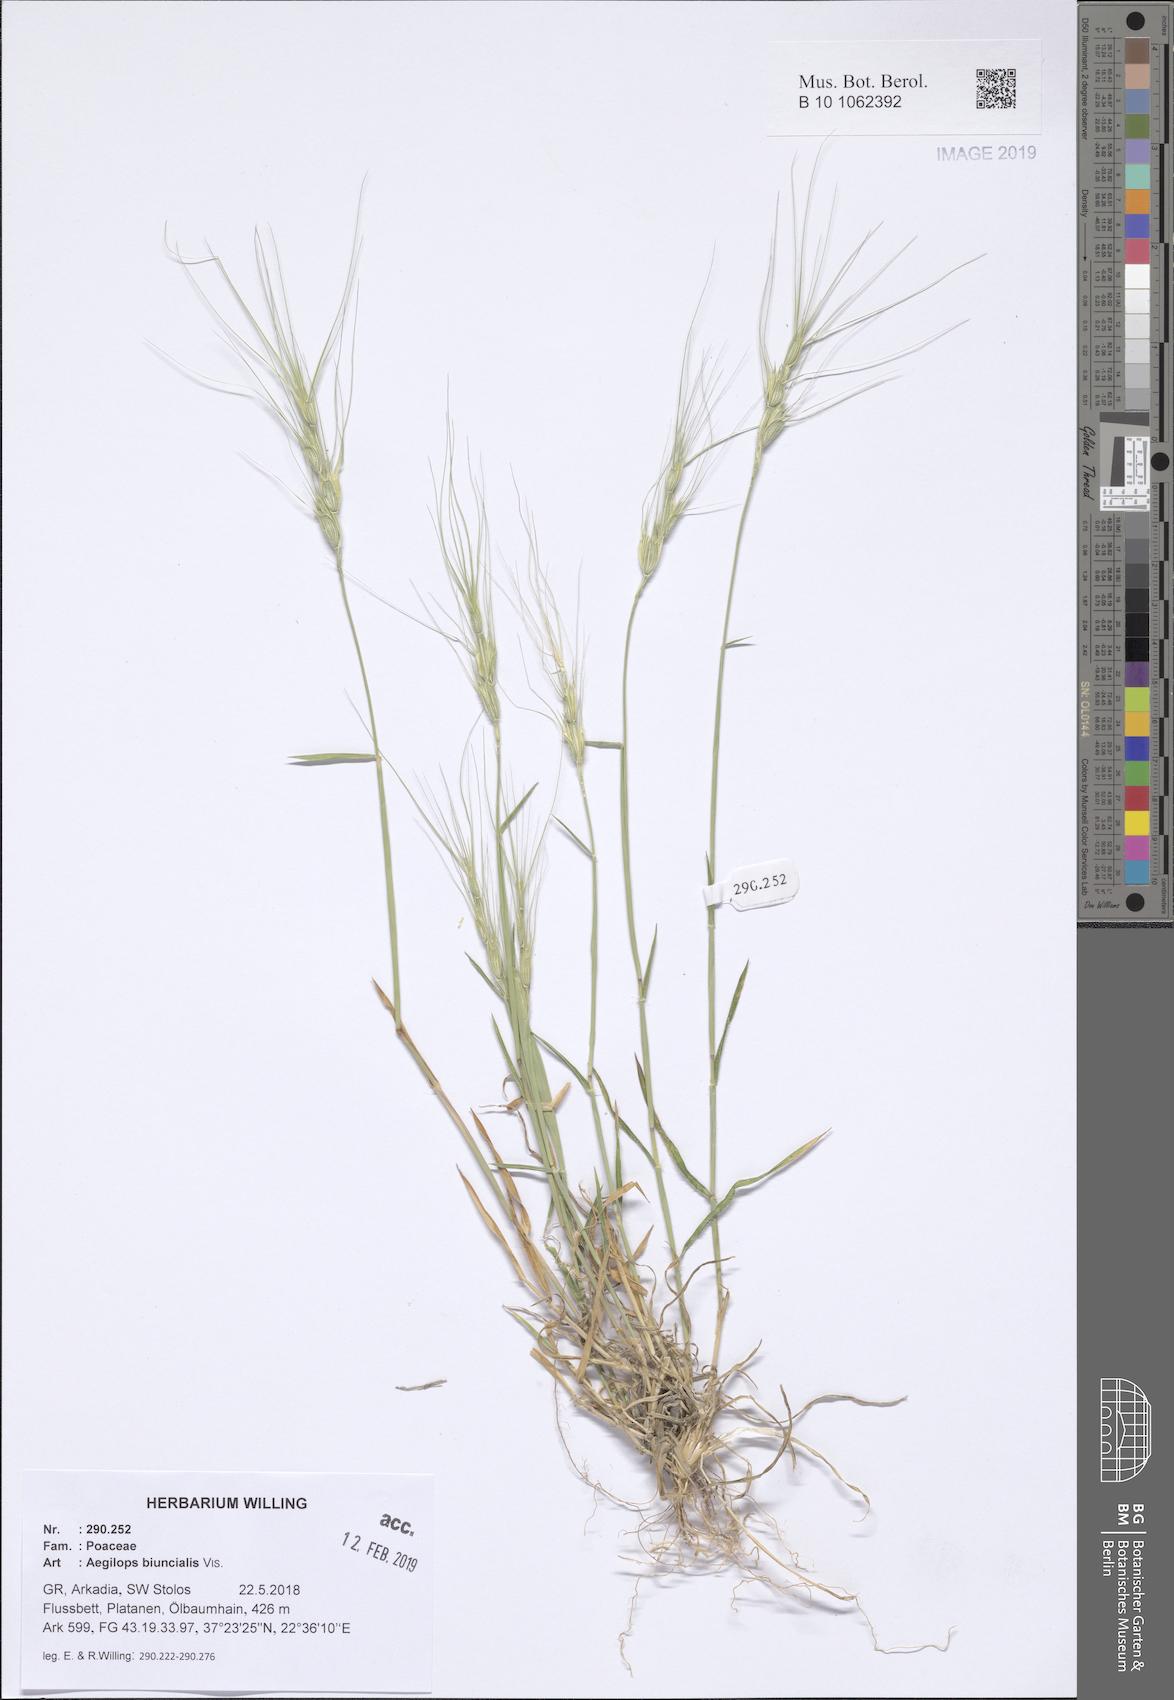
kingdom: Plantae
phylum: Tracheophyta
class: Liliopsida
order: Poales
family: Poaceae
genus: Aegilops
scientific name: Aegilops biuncialis
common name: Mediterranean aegilops
